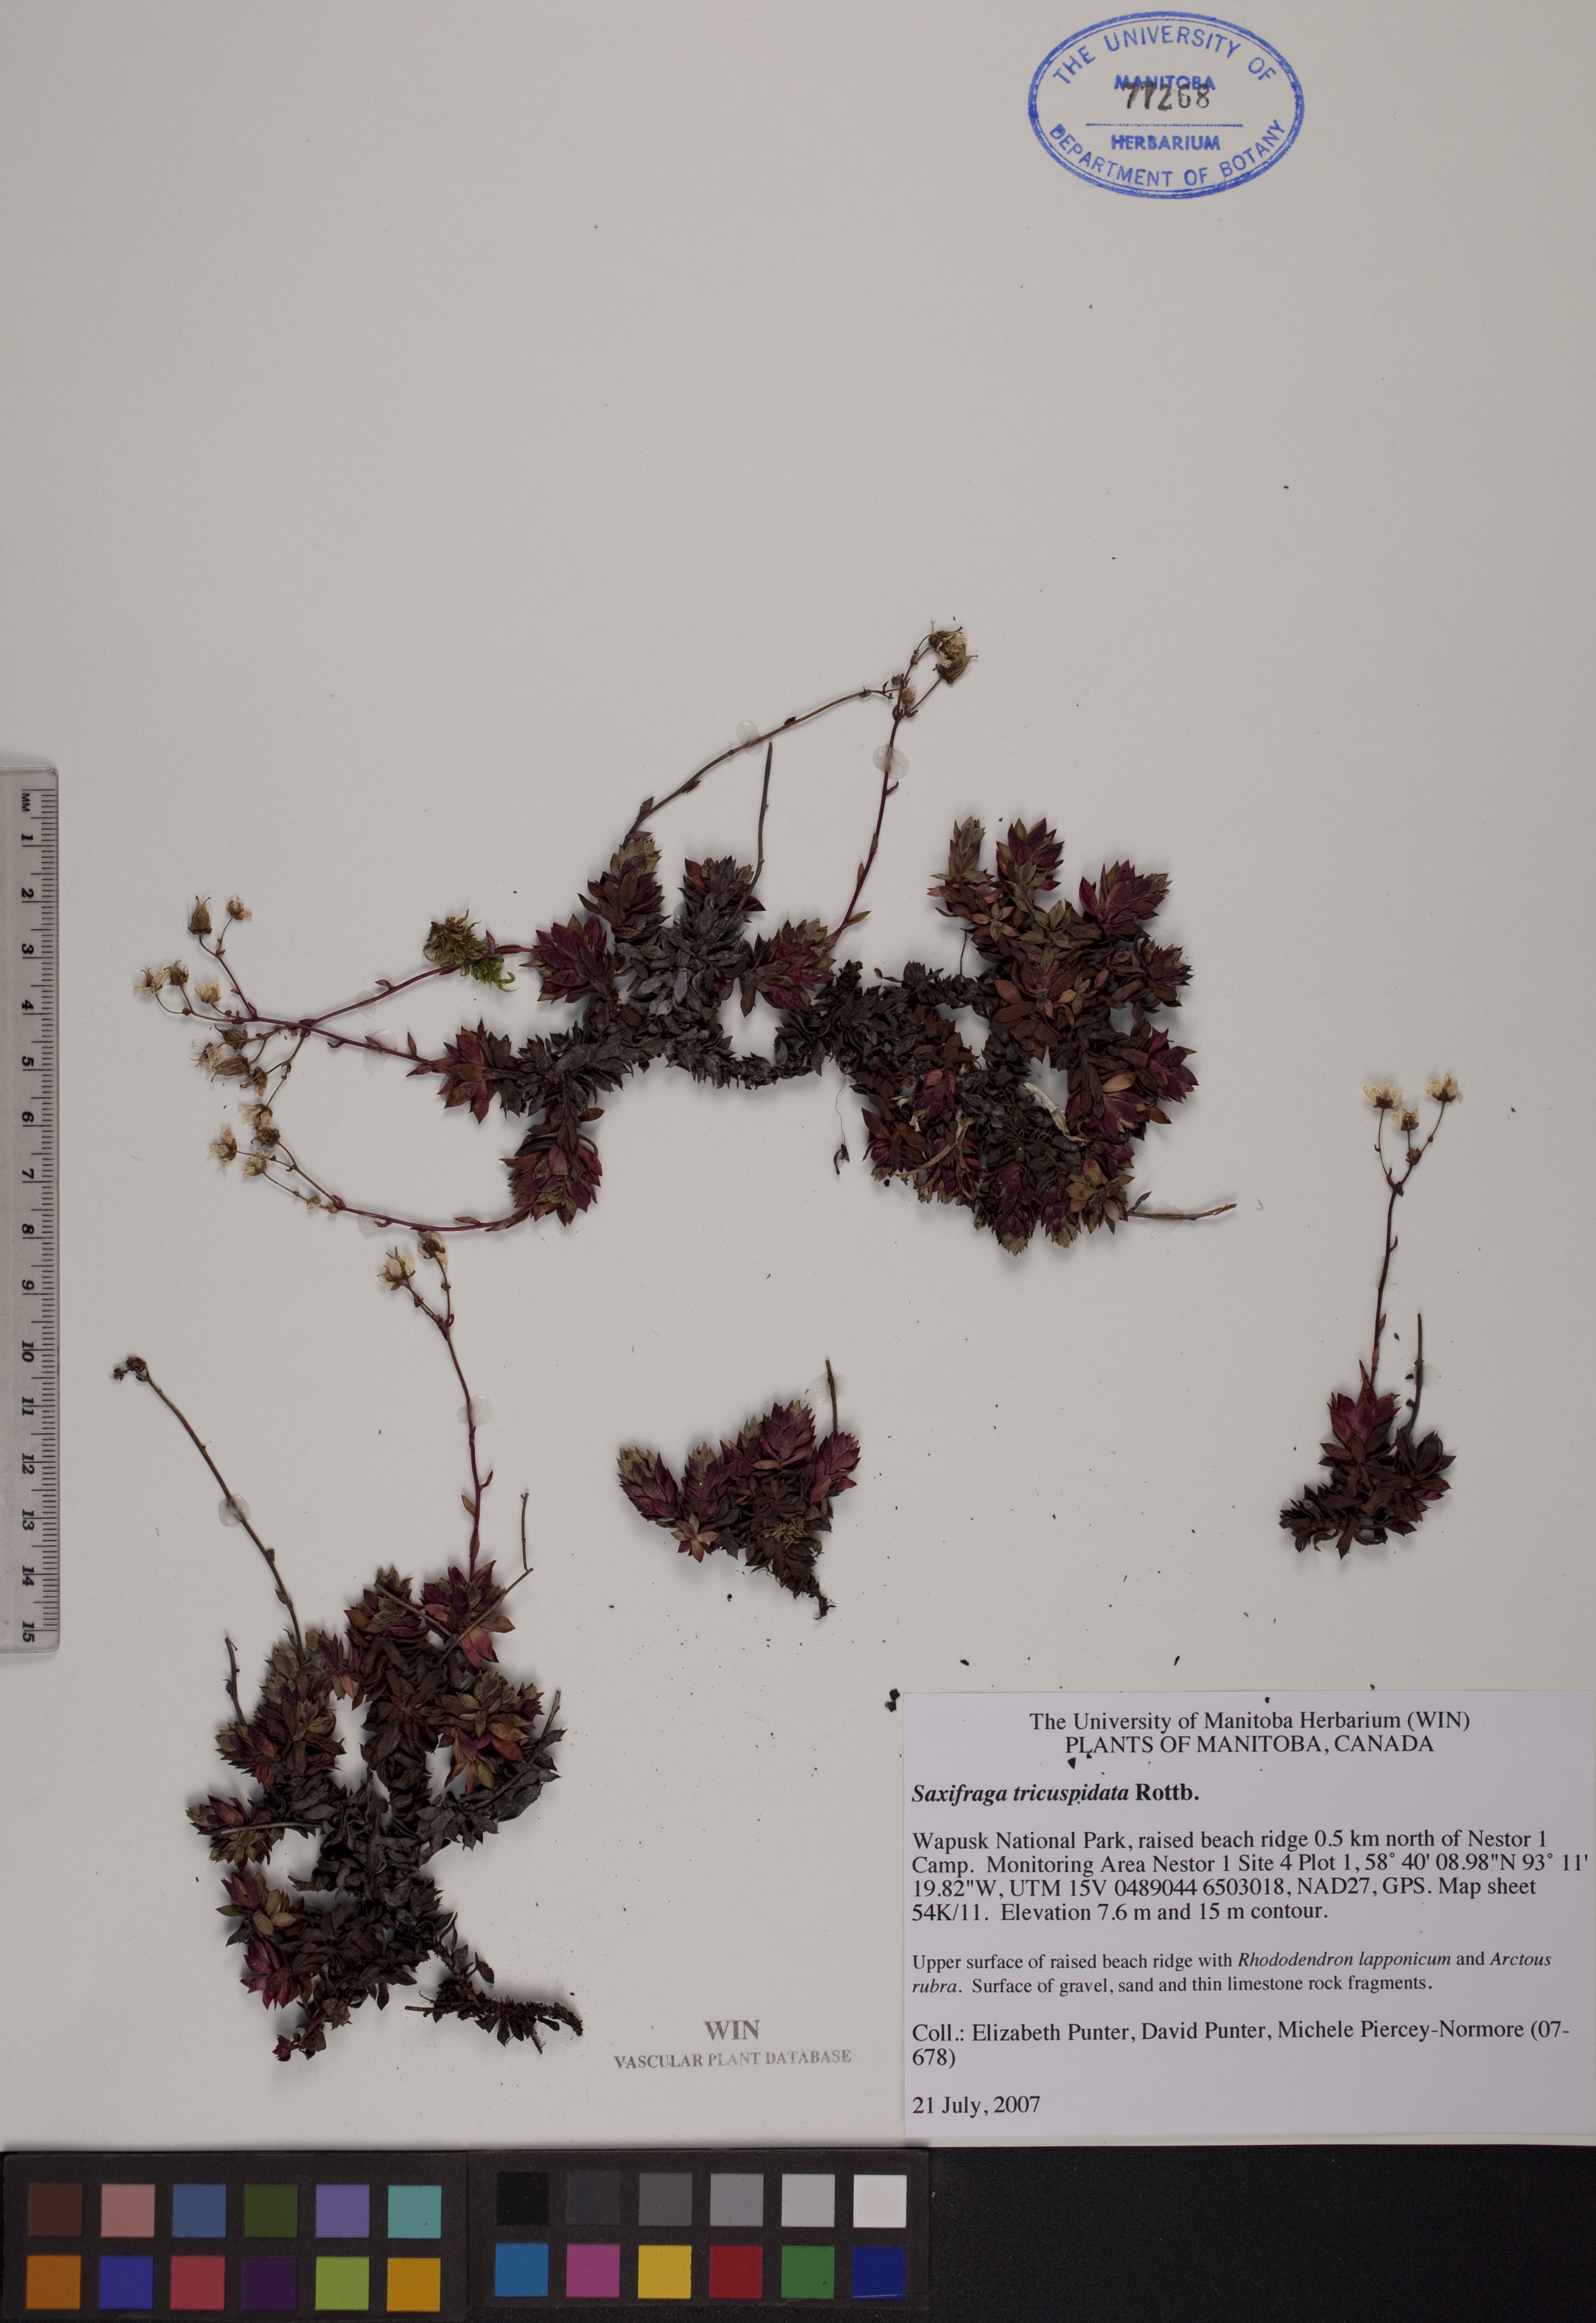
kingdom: Plantae
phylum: Tracheophyta
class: Magnoliopsida
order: Saxifragales
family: Saxifragaceae
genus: Saxifraga
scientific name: Saxifraga tricuspidata
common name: Prickly saxifrage
